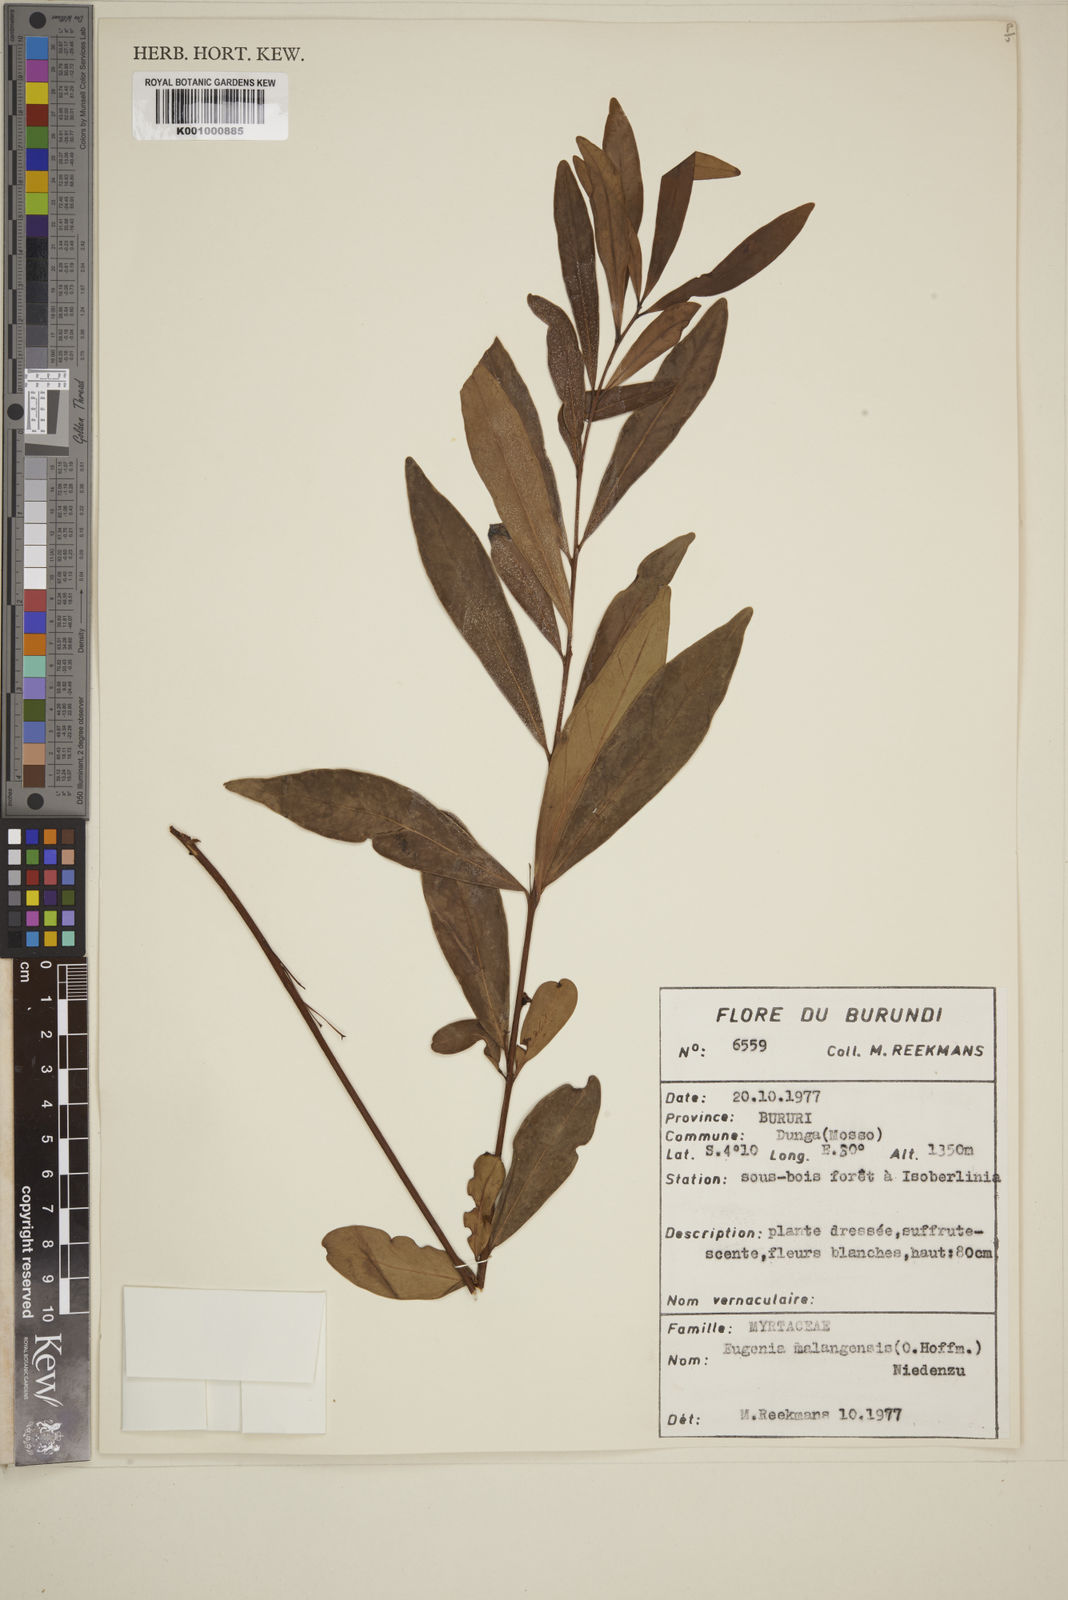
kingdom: Plantae
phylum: Tracheophyta
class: Magnoliopsida
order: Myrtales
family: Myrtaceae
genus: Eugenia
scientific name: Eugenia malangensis
